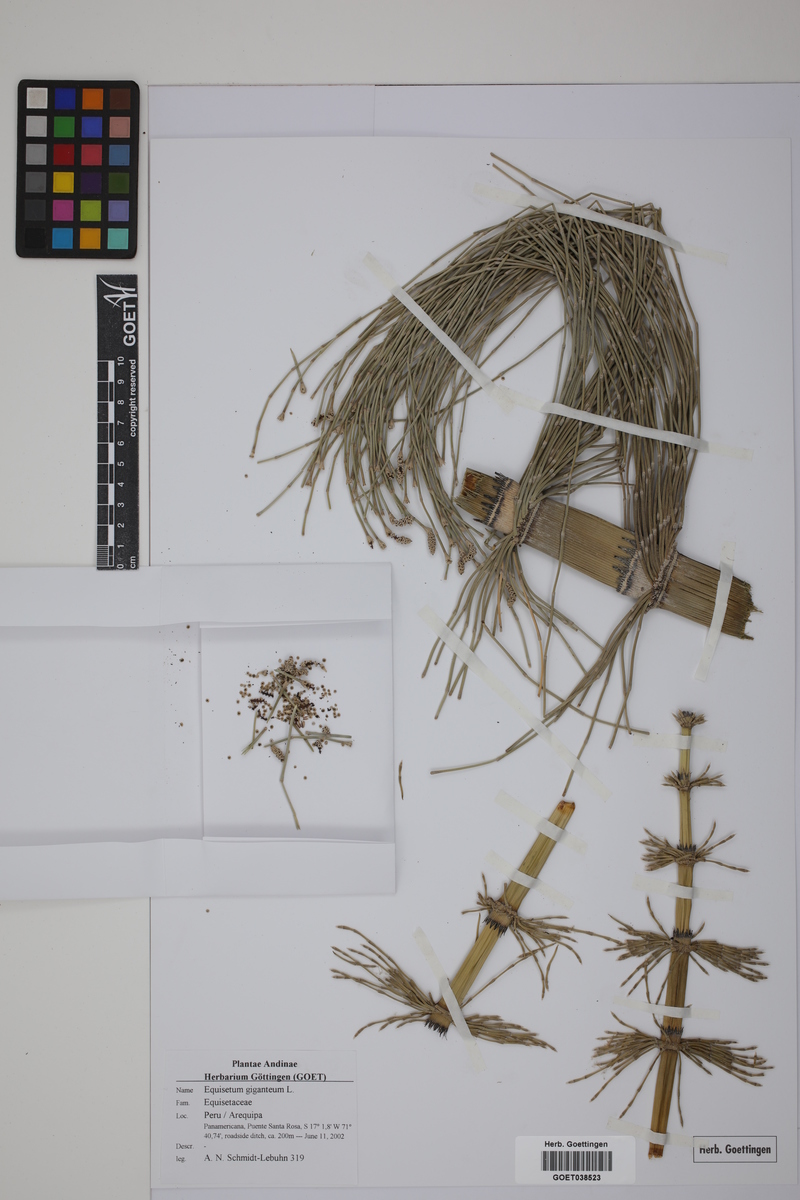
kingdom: Plantae
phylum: Tracheophyta
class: Polypodiopsida
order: Equisetales
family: Equisetaceae
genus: Equisetum
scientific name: Equisetum giganteum
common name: Giant horsetail
